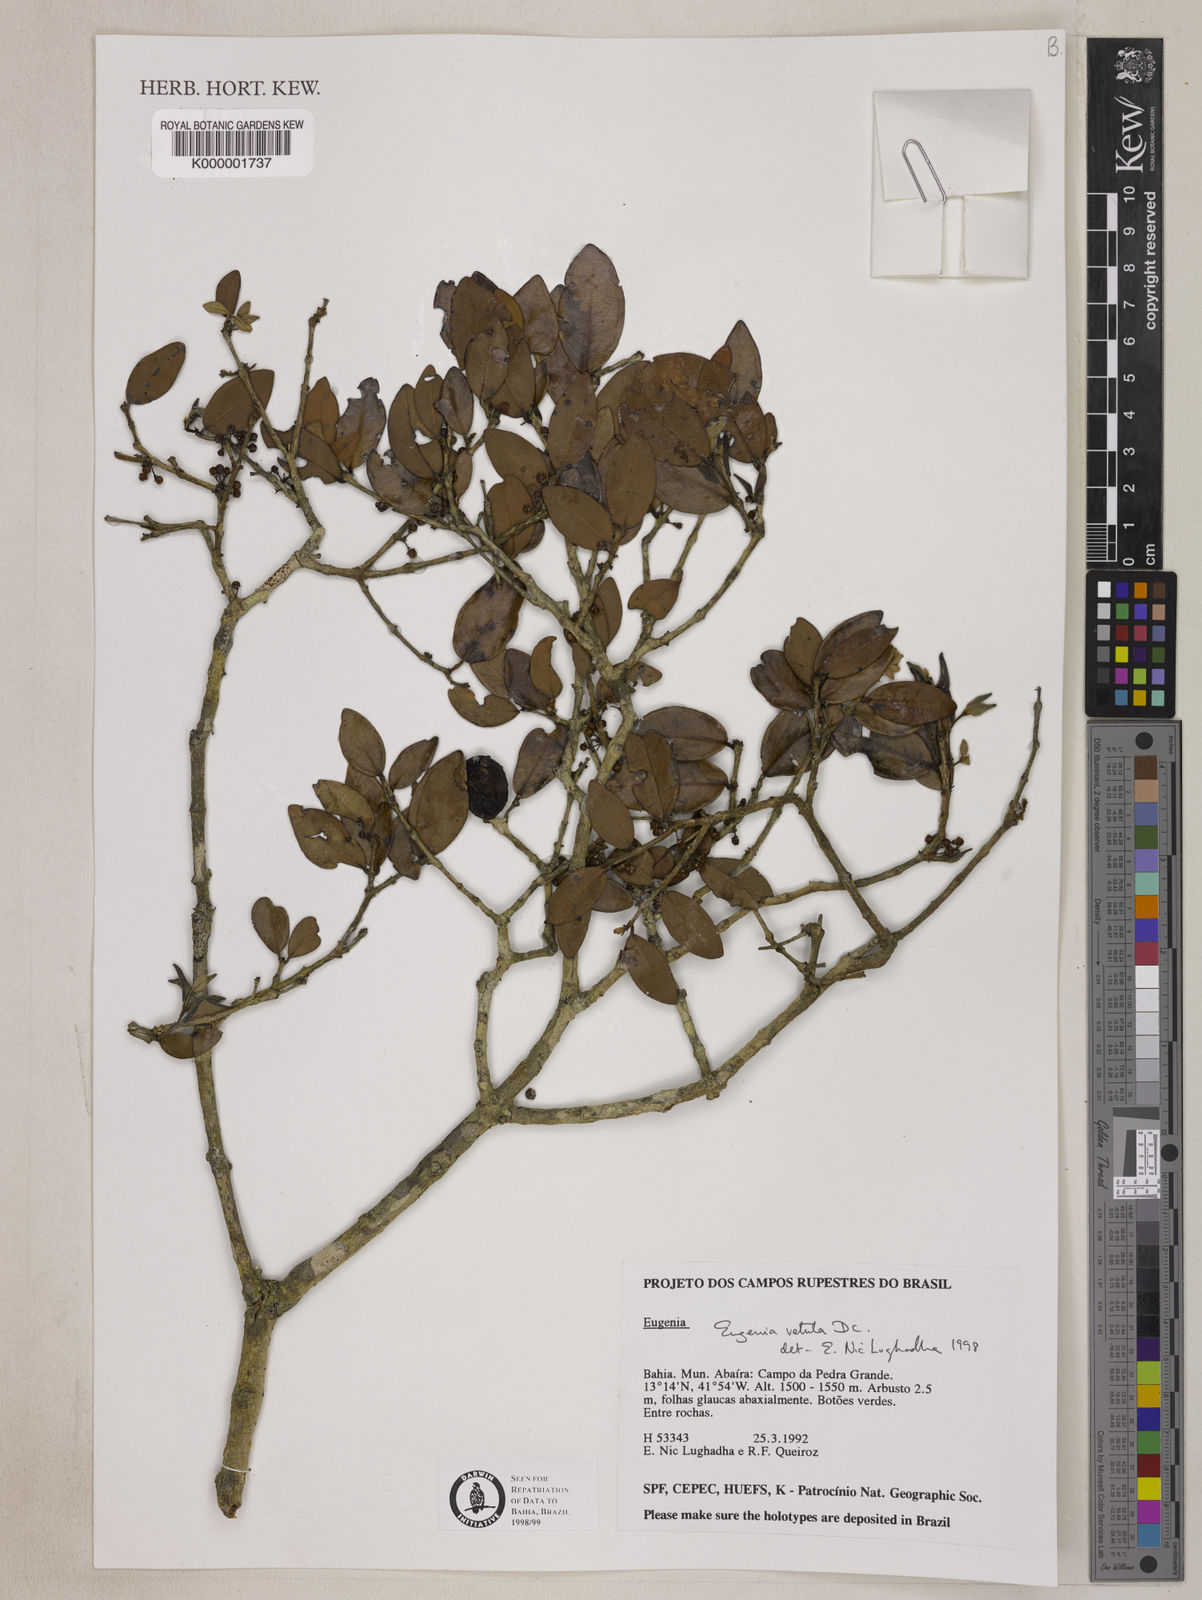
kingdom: Plantae
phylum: Tracheophyta
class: Magnoliopsida
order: Myrtales
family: Myrtaceae
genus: Eugenia
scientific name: Eugenia vetula
